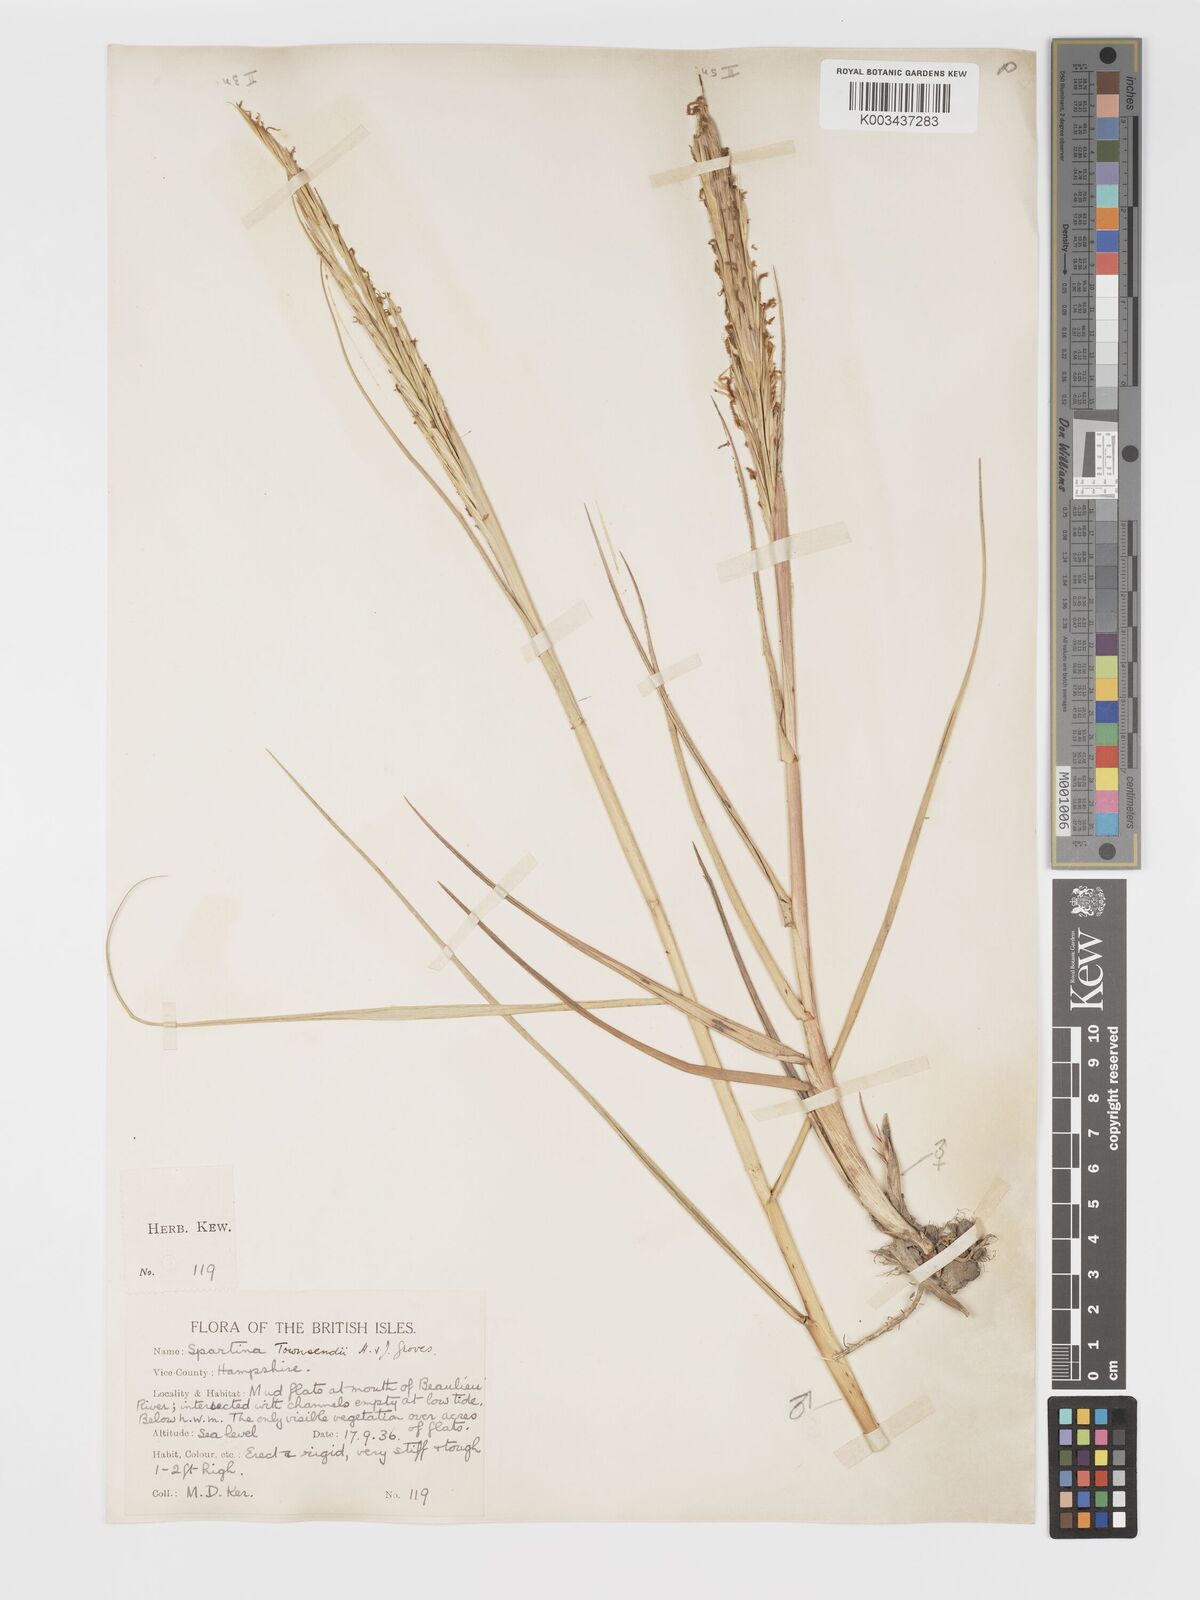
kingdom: Plantae
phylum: Tracheophyta
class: Liliopsida
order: Poales
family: Poaceae
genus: Sporobolus
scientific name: Sporobolus townsendii
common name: Townsend's cordgrass
